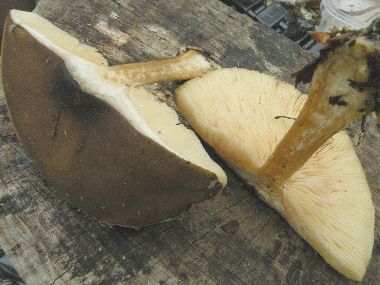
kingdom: Fungi
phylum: Basidiomycota
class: Agaricomycetes
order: Agaricales
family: Tricholomataceae
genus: Melanoleuca
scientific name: Melanoleuca cognata
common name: gyldengrå munkehat
